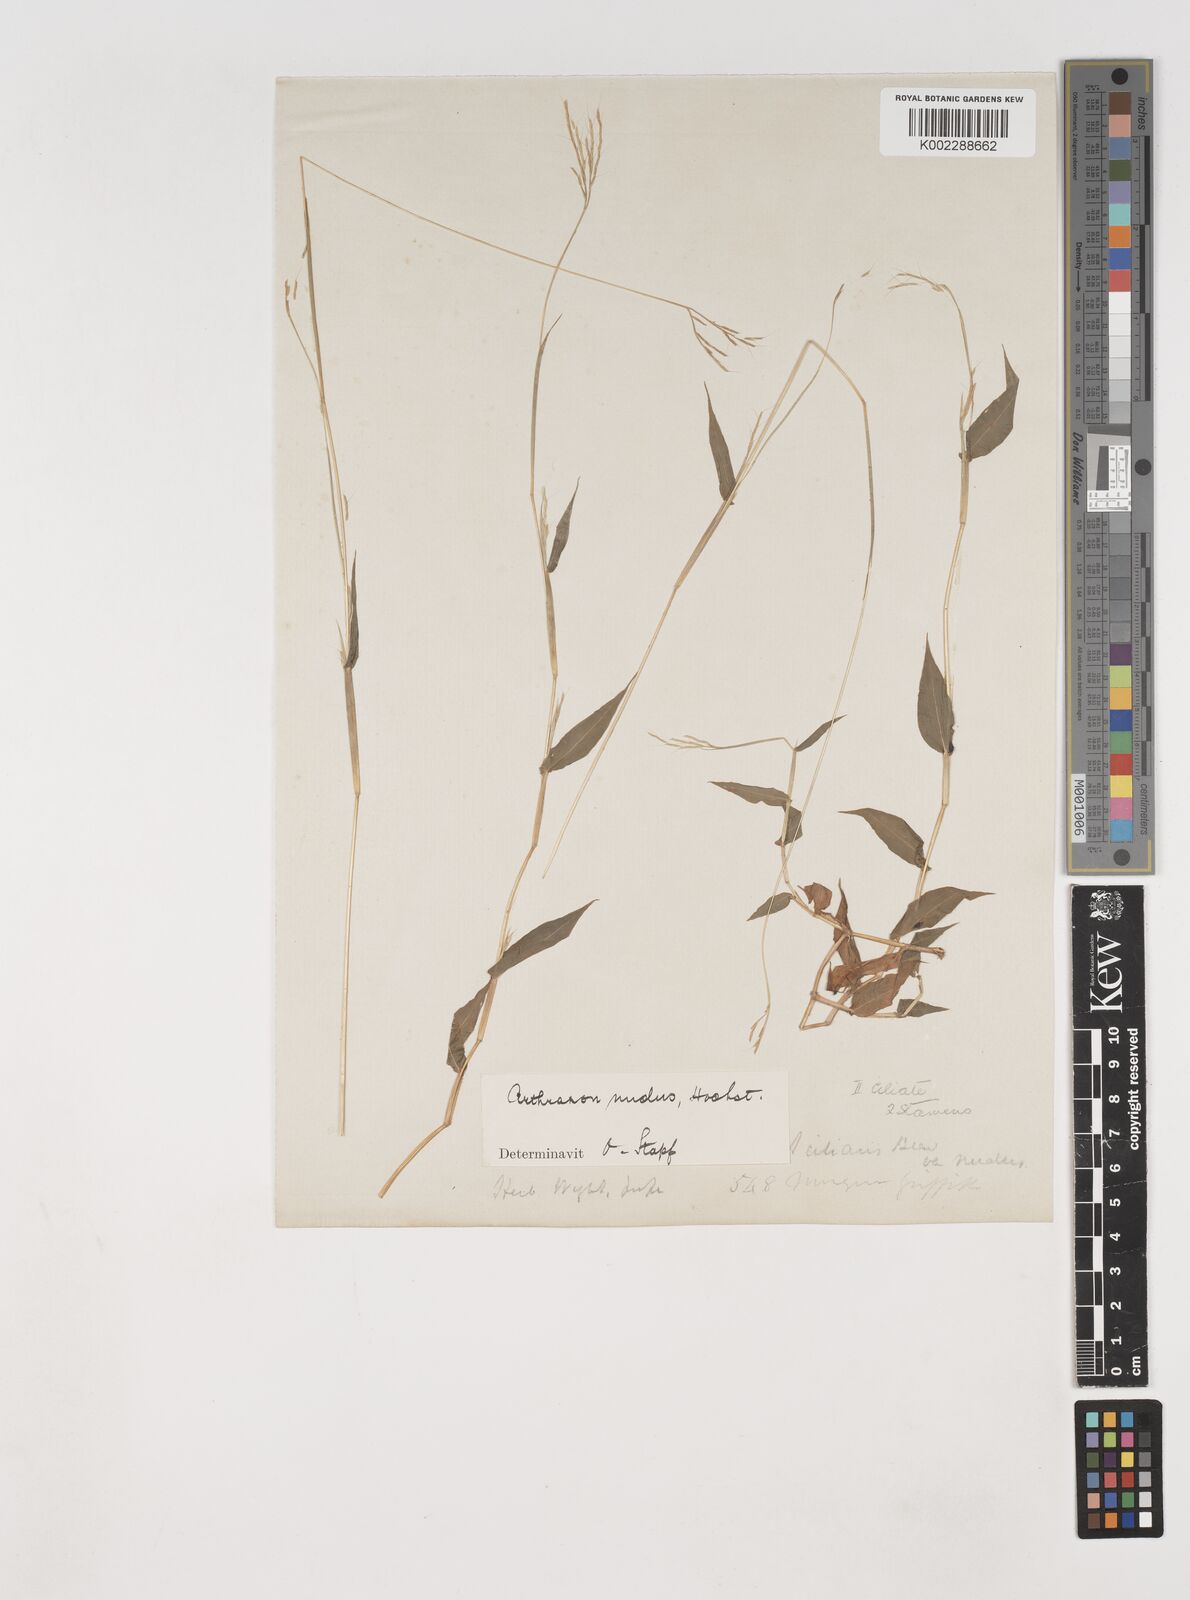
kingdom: Plantae
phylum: Tracheophyta
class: Liliopsida
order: Poales
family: Poaceae
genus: Arthraxon
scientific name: Arthraxon nudus
